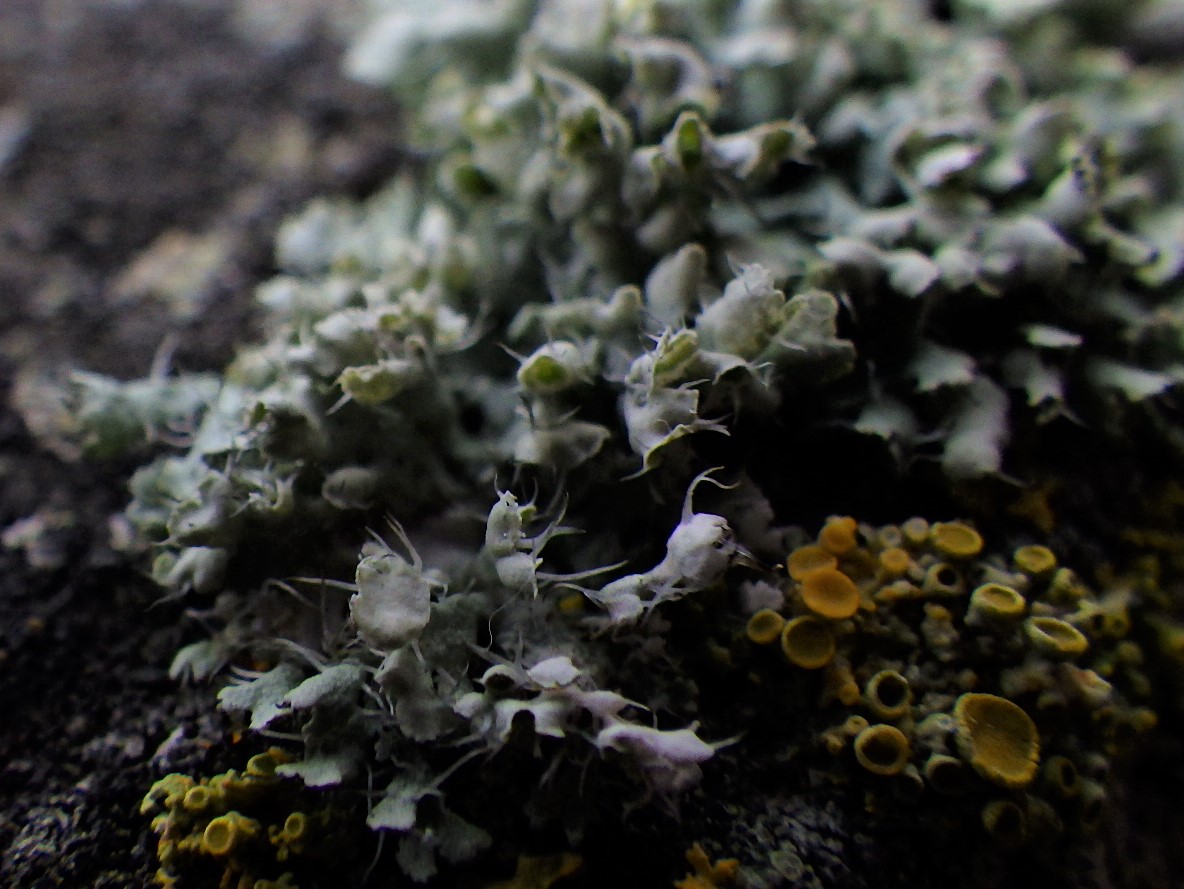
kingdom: Fungi
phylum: Ascomycota
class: Lecanoromycetes
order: Caliciales
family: Physciaceae
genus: Physcia
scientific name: Physcia adscendens
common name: hætte-rosetlav
